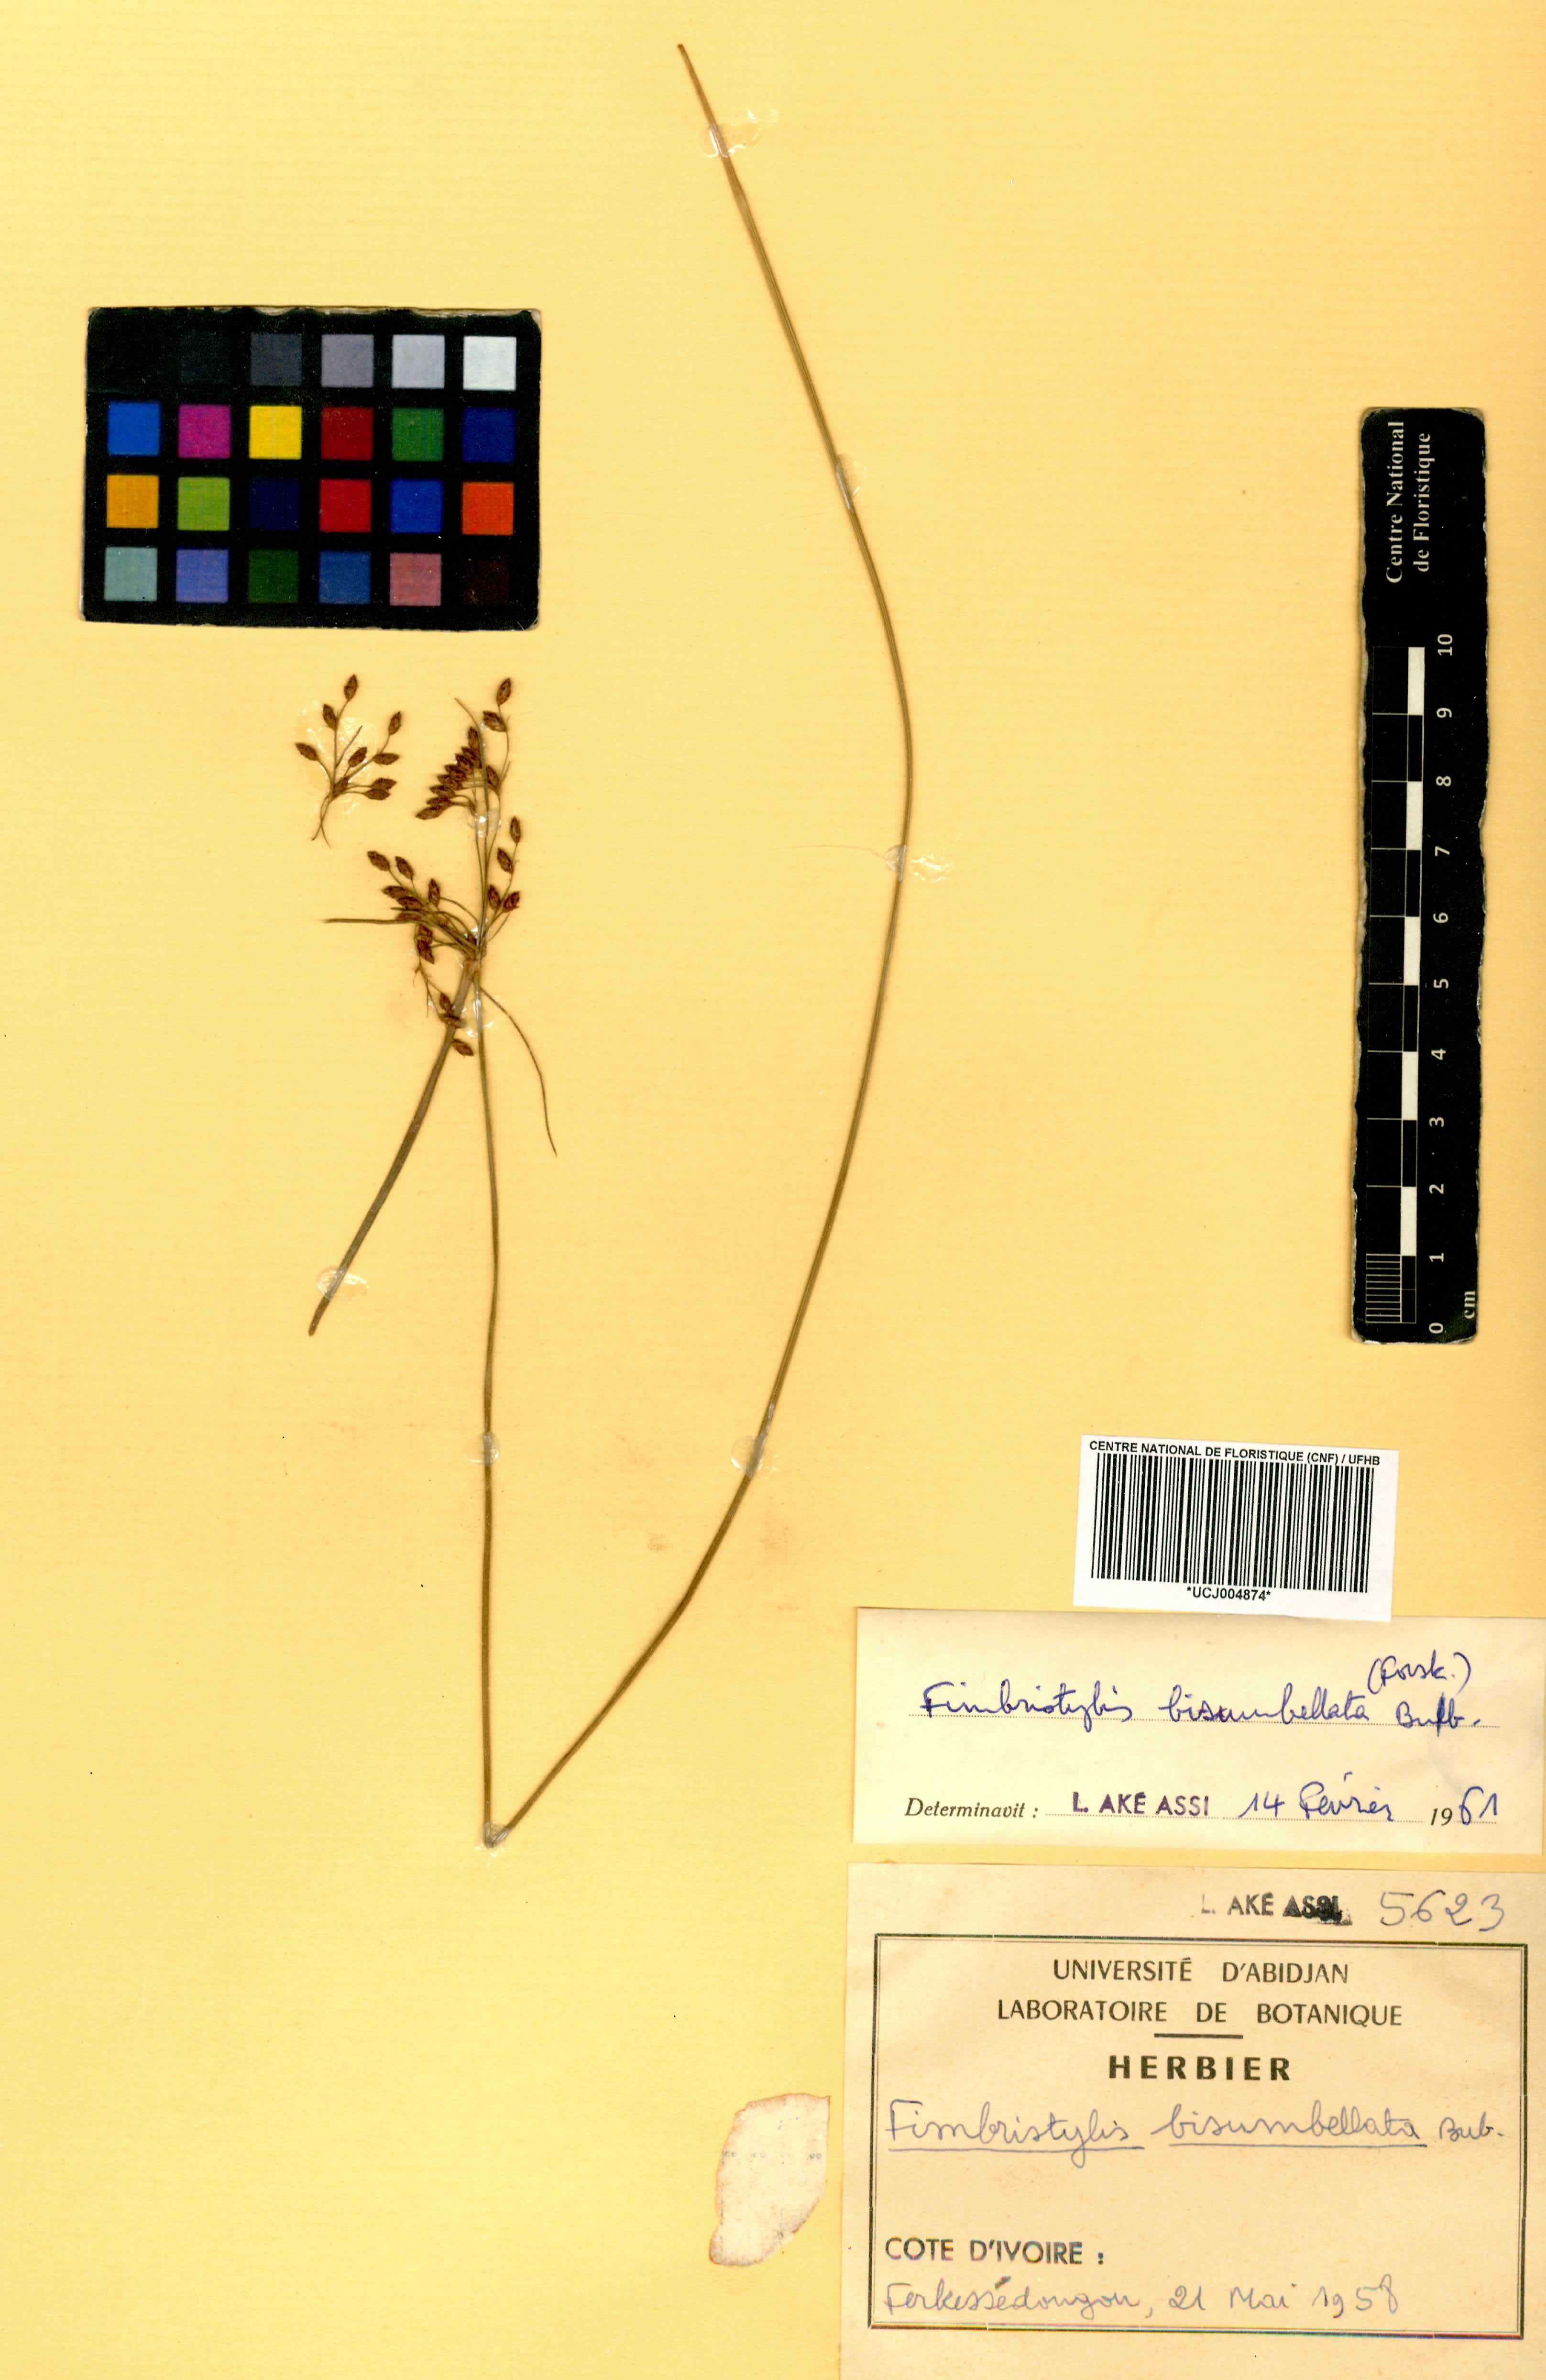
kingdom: Plantae
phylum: Tracheophyta
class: Liliopsida
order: Poales
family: Cyperaceae
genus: Fimbristylis
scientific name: Fimbristylis bisumbellata
